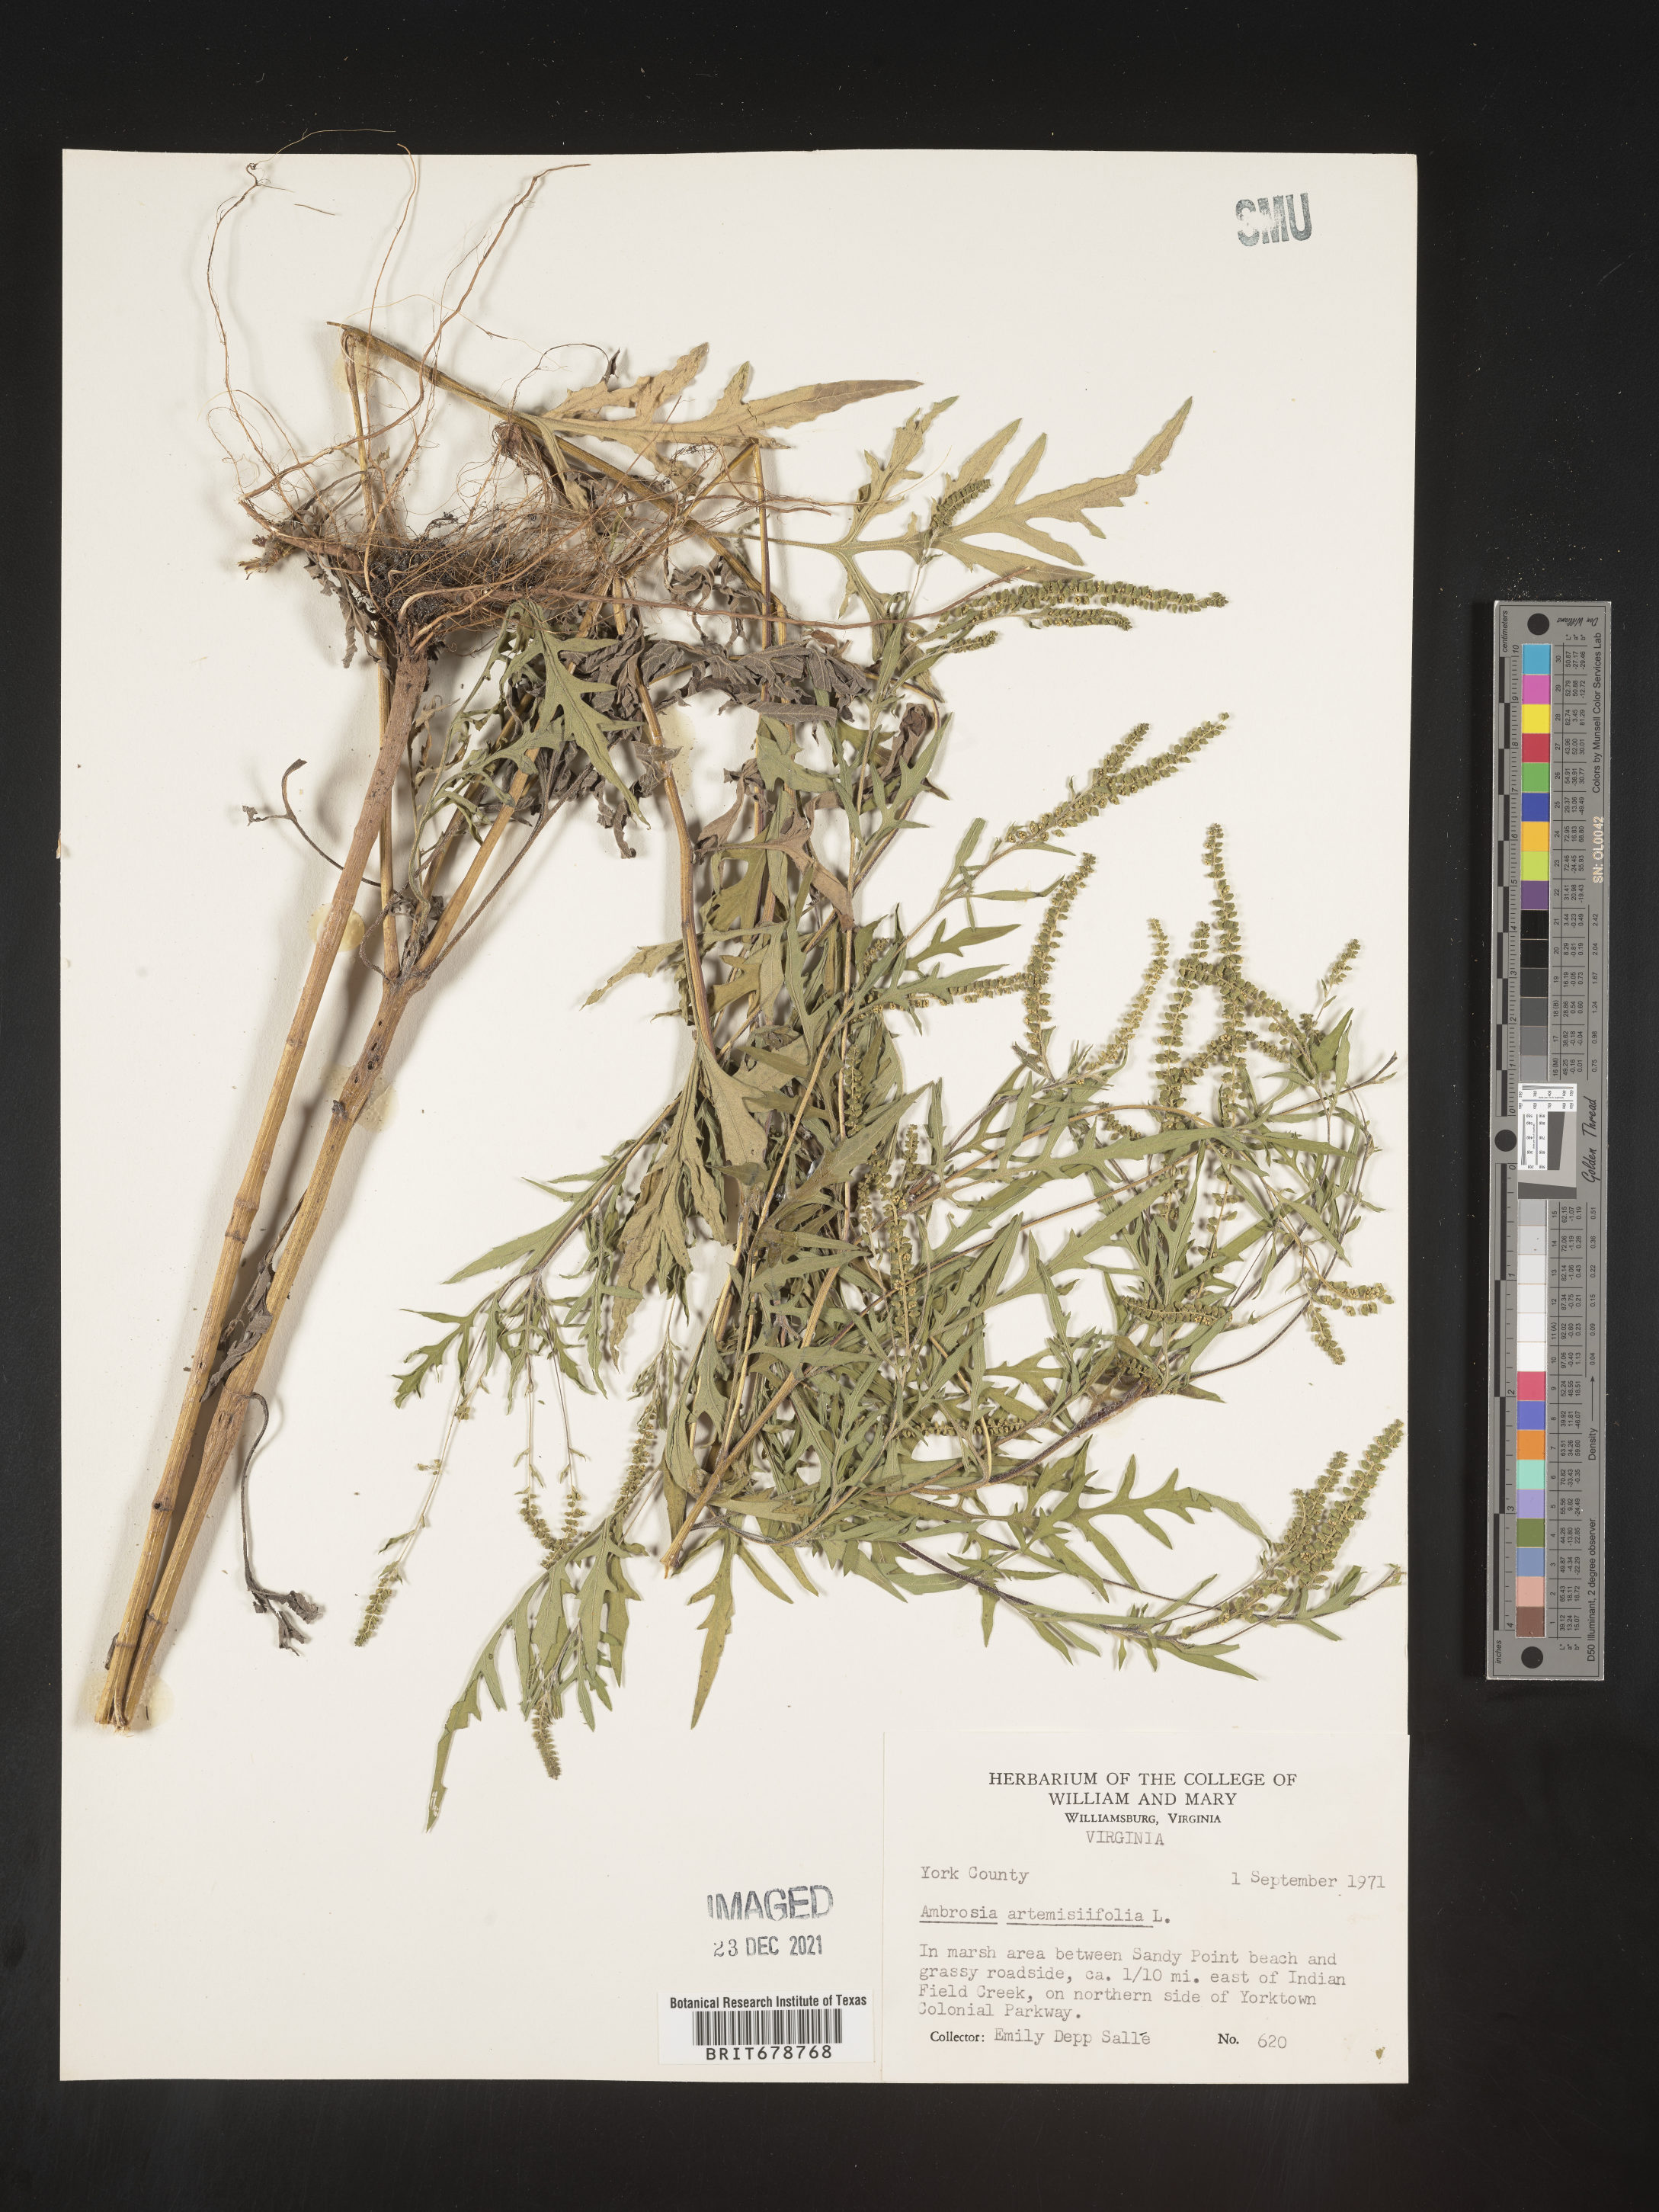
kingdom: Plantae
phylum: Tracheophyta
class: Magnoliopsida
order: Asterales
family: Asteraceae
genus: Ambrosia
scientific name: Ambrosia artemisiifolia
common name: Annual ragweed
